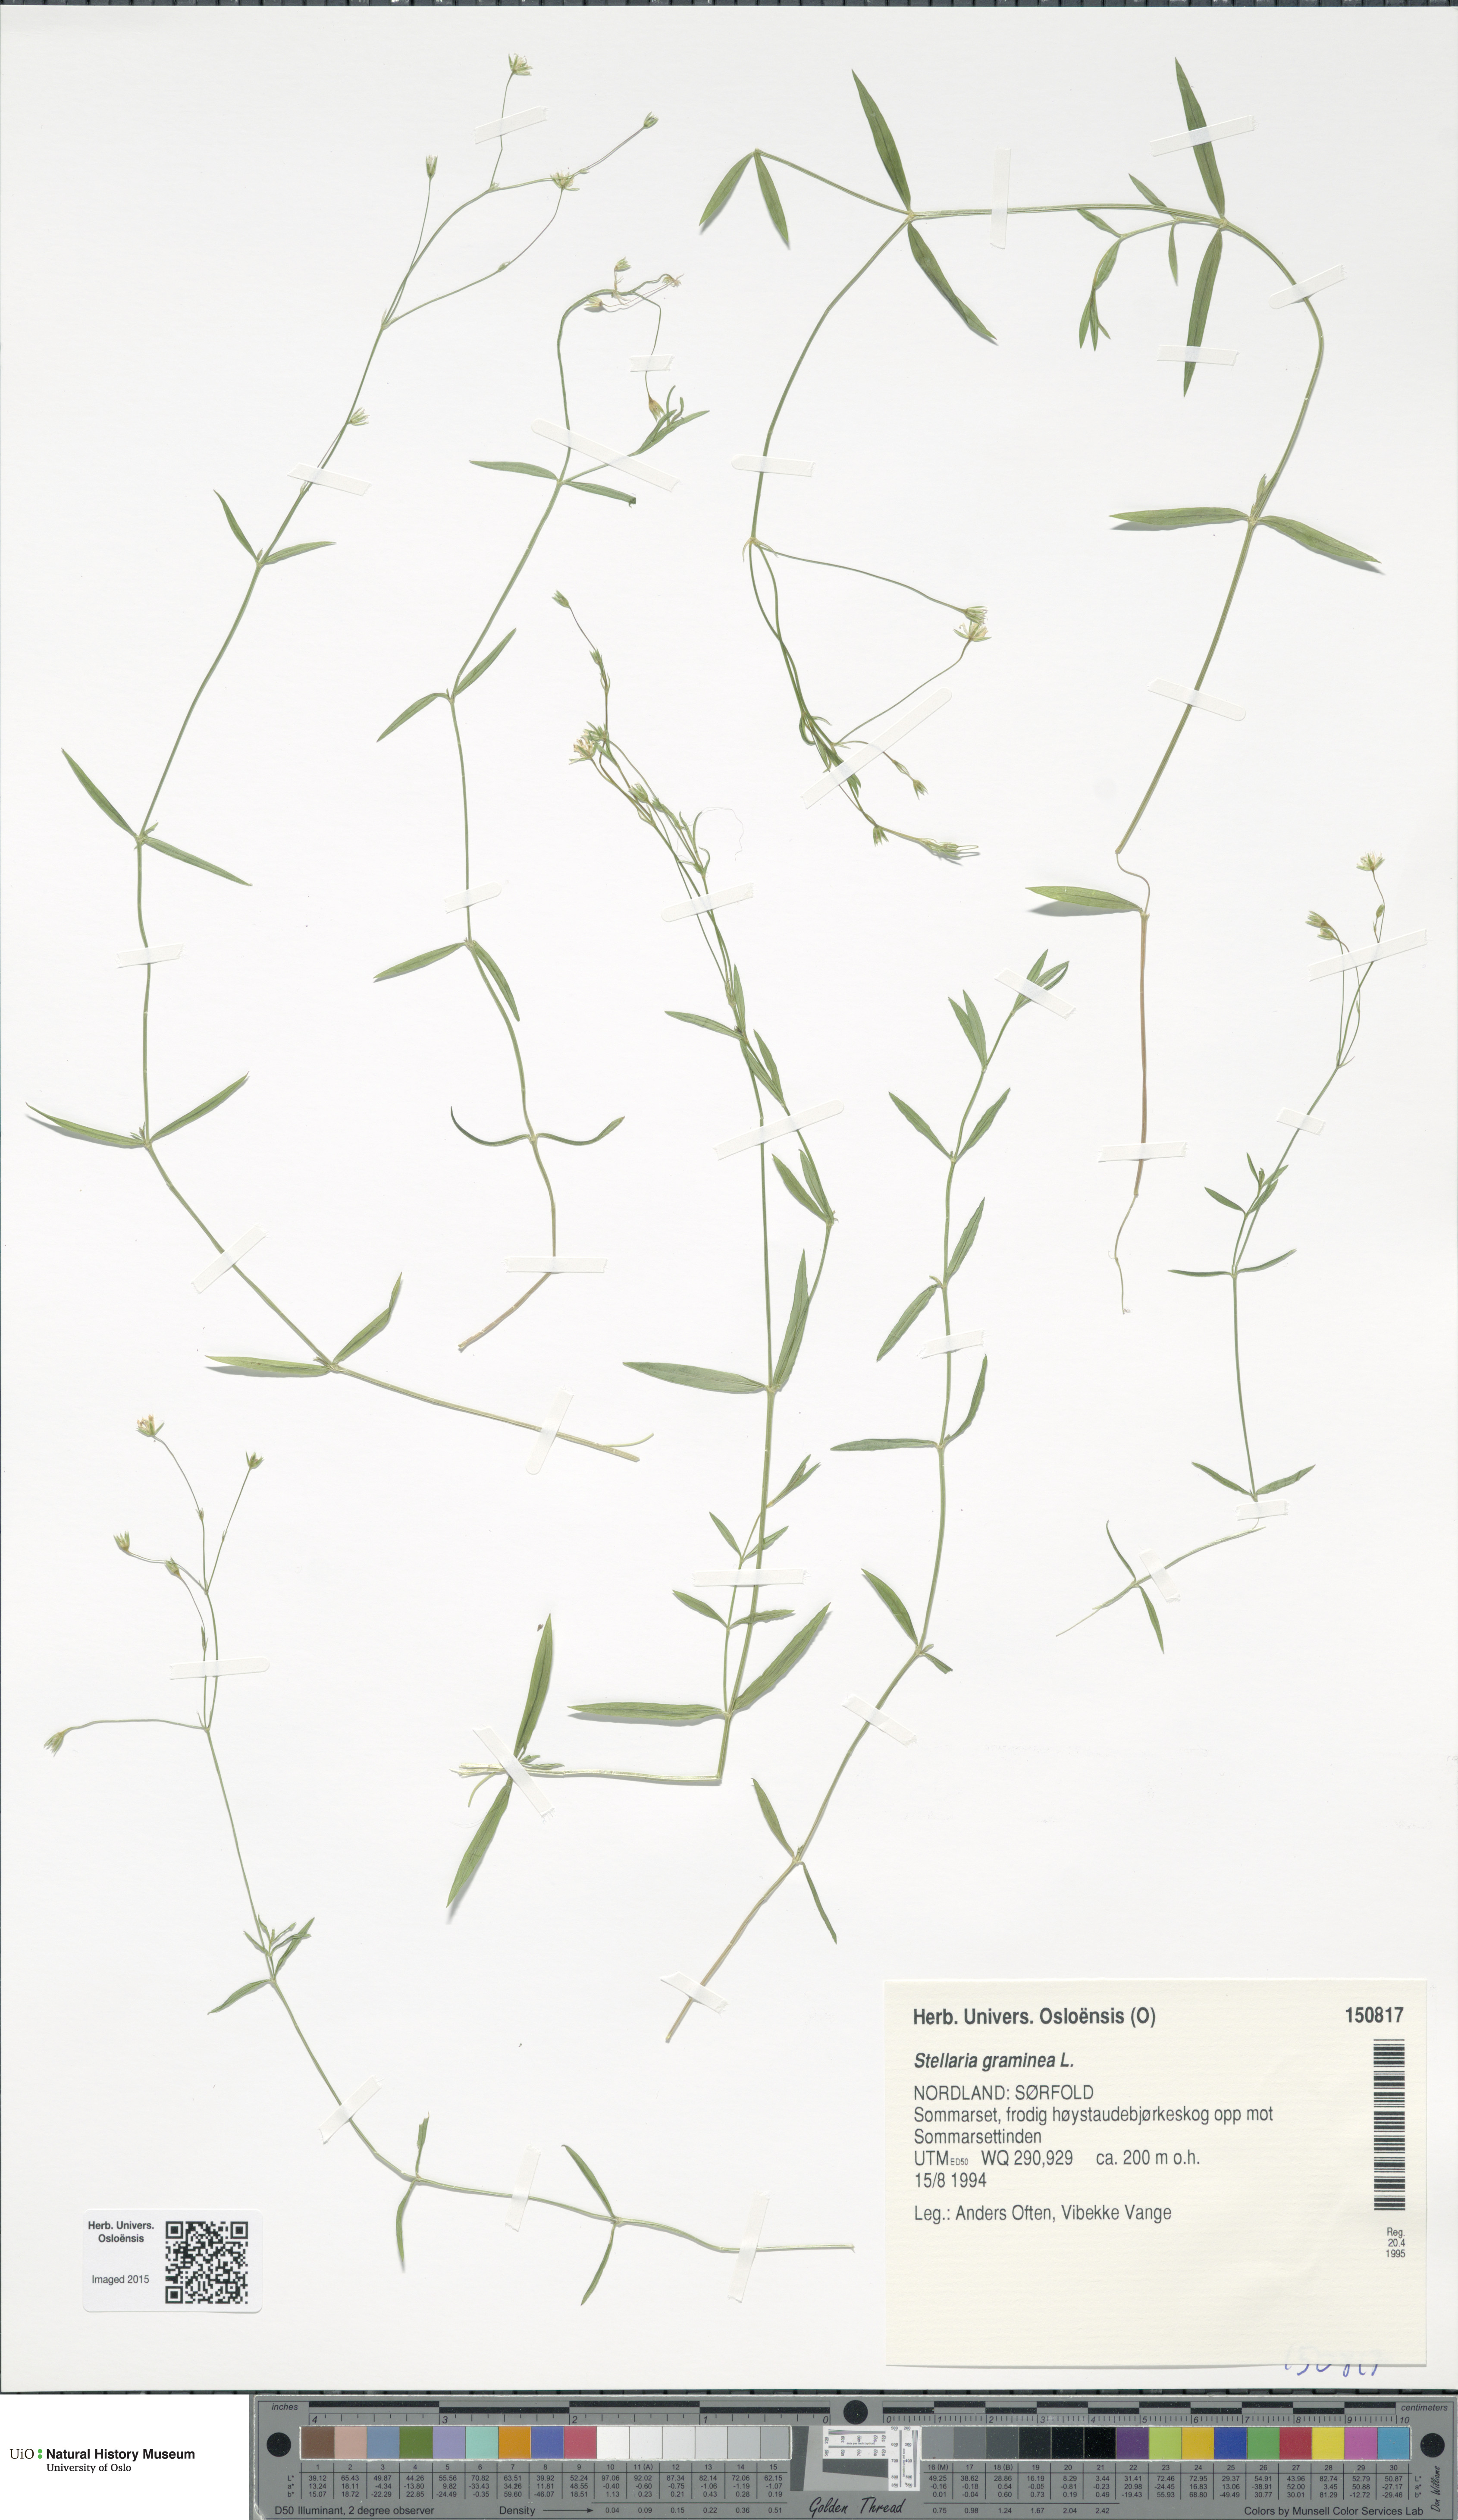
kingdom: Plantae
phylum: Tracheophyta
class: Magnoliopsida
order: Caryophyllales
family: Caryophyllaceae
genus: Stellaria
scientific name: Stellaria graminea
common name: Grass-like starwort
